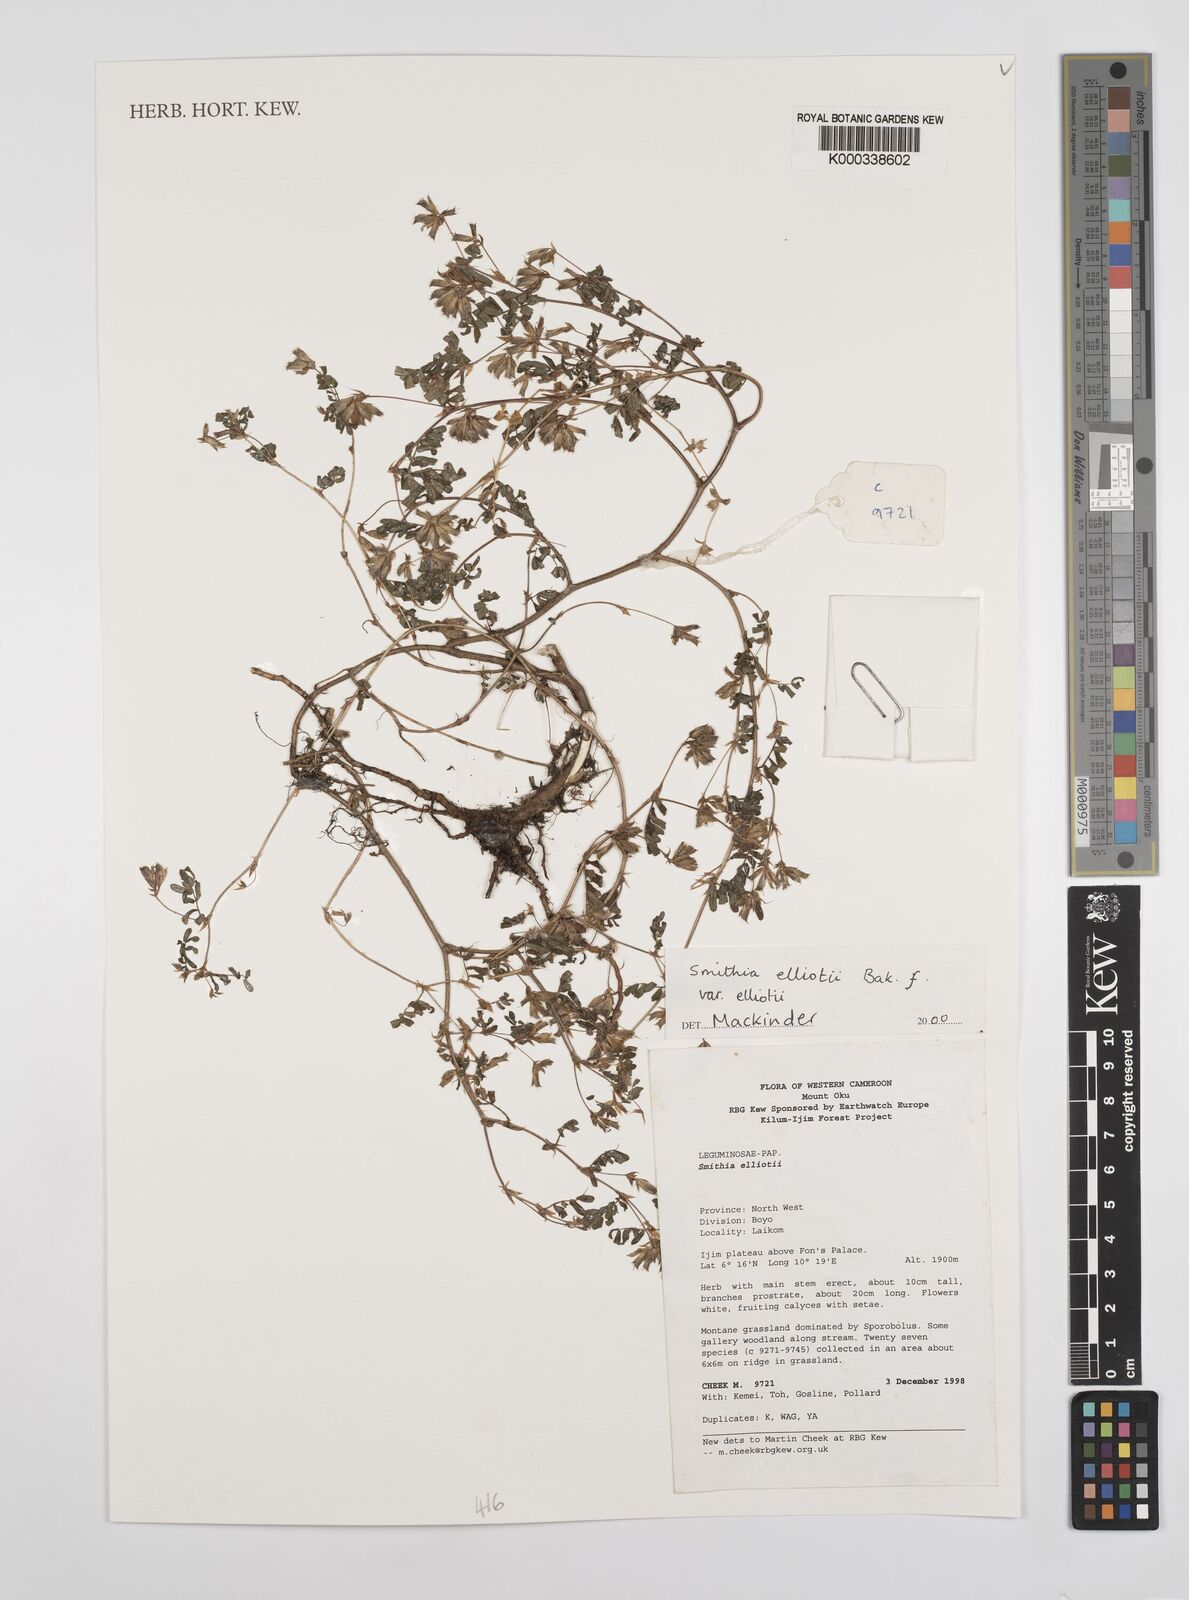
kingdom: Plantae
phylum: Tracheophyta
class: Magnoliopsida
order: Fabales
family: Fabaceae
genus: Smithia
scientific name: Smithia elliotii
